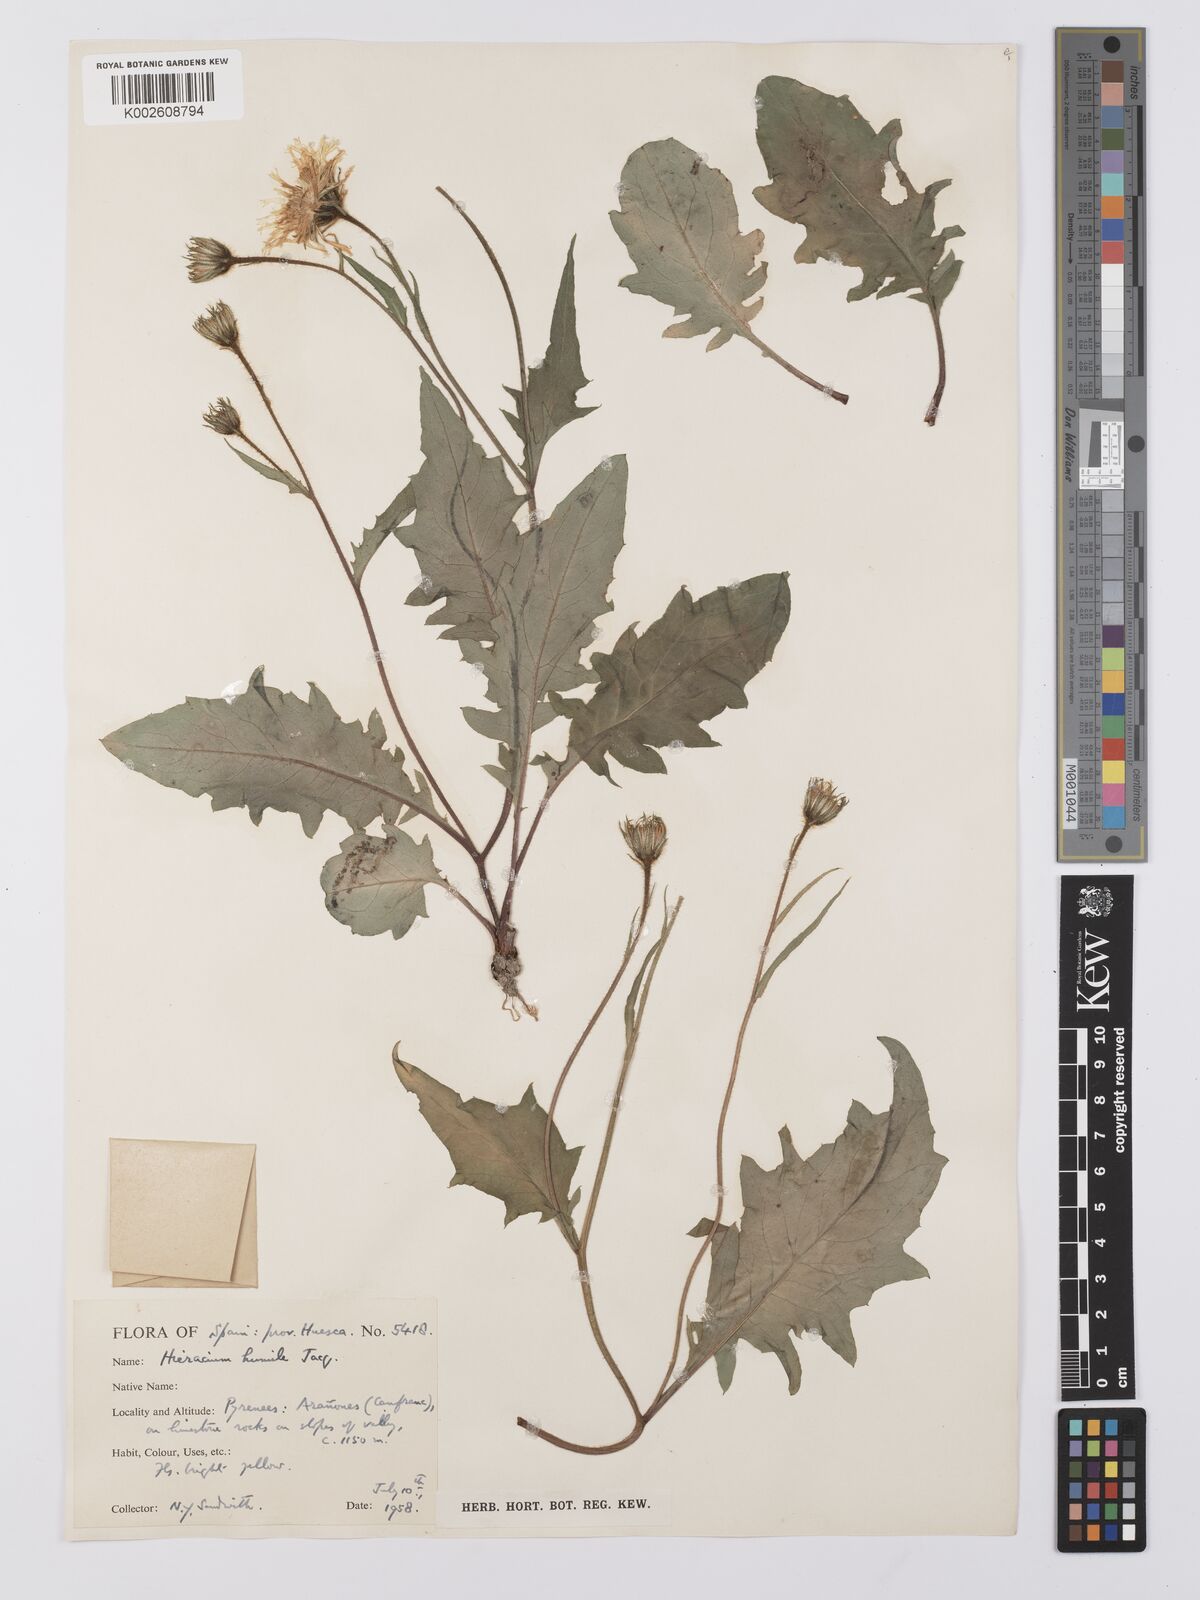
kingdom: Plantae
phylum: Tracheophyta
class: Magnoliopsida
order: Asterales
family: Asteraceae
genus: Hieracium
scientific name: Hieracium humile
